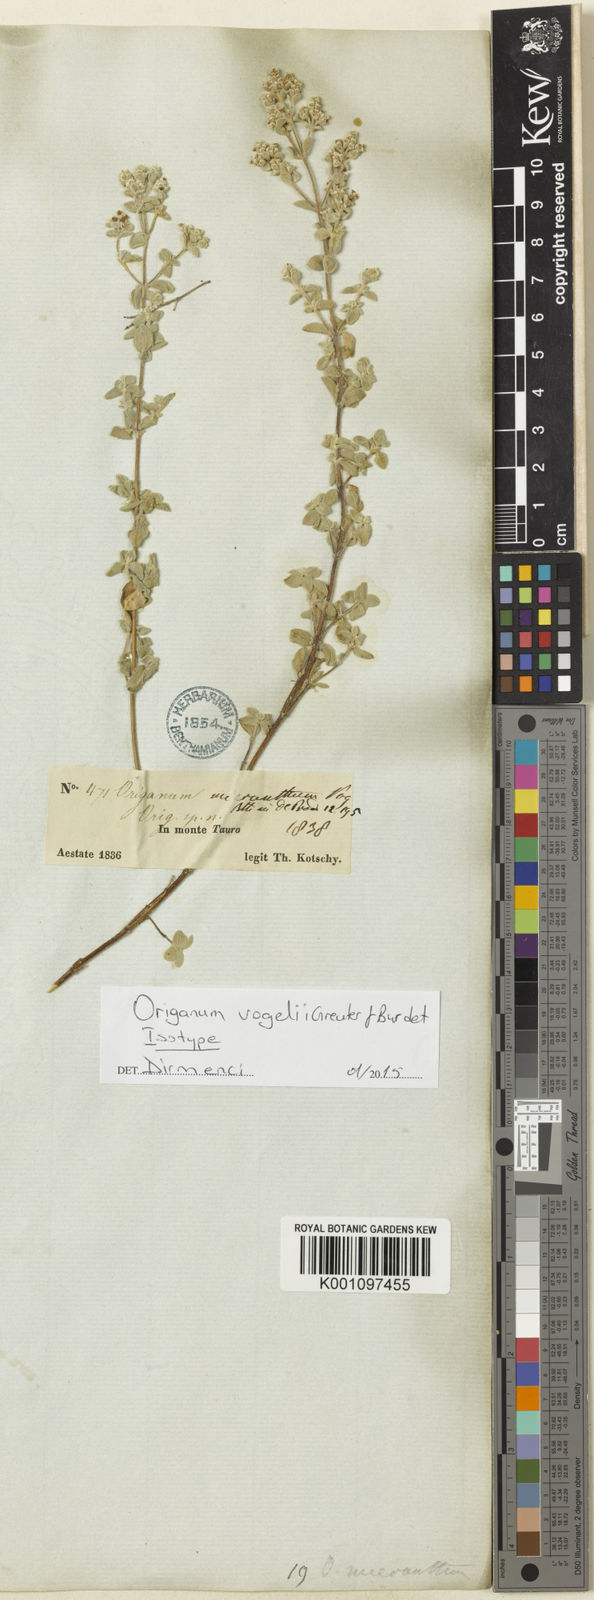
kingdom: Plantae
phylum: Tracheophyta
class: Magnoliopsida
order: Lamiales
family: Lamiaceae
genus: Origanum
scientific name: Origanum vogelii
